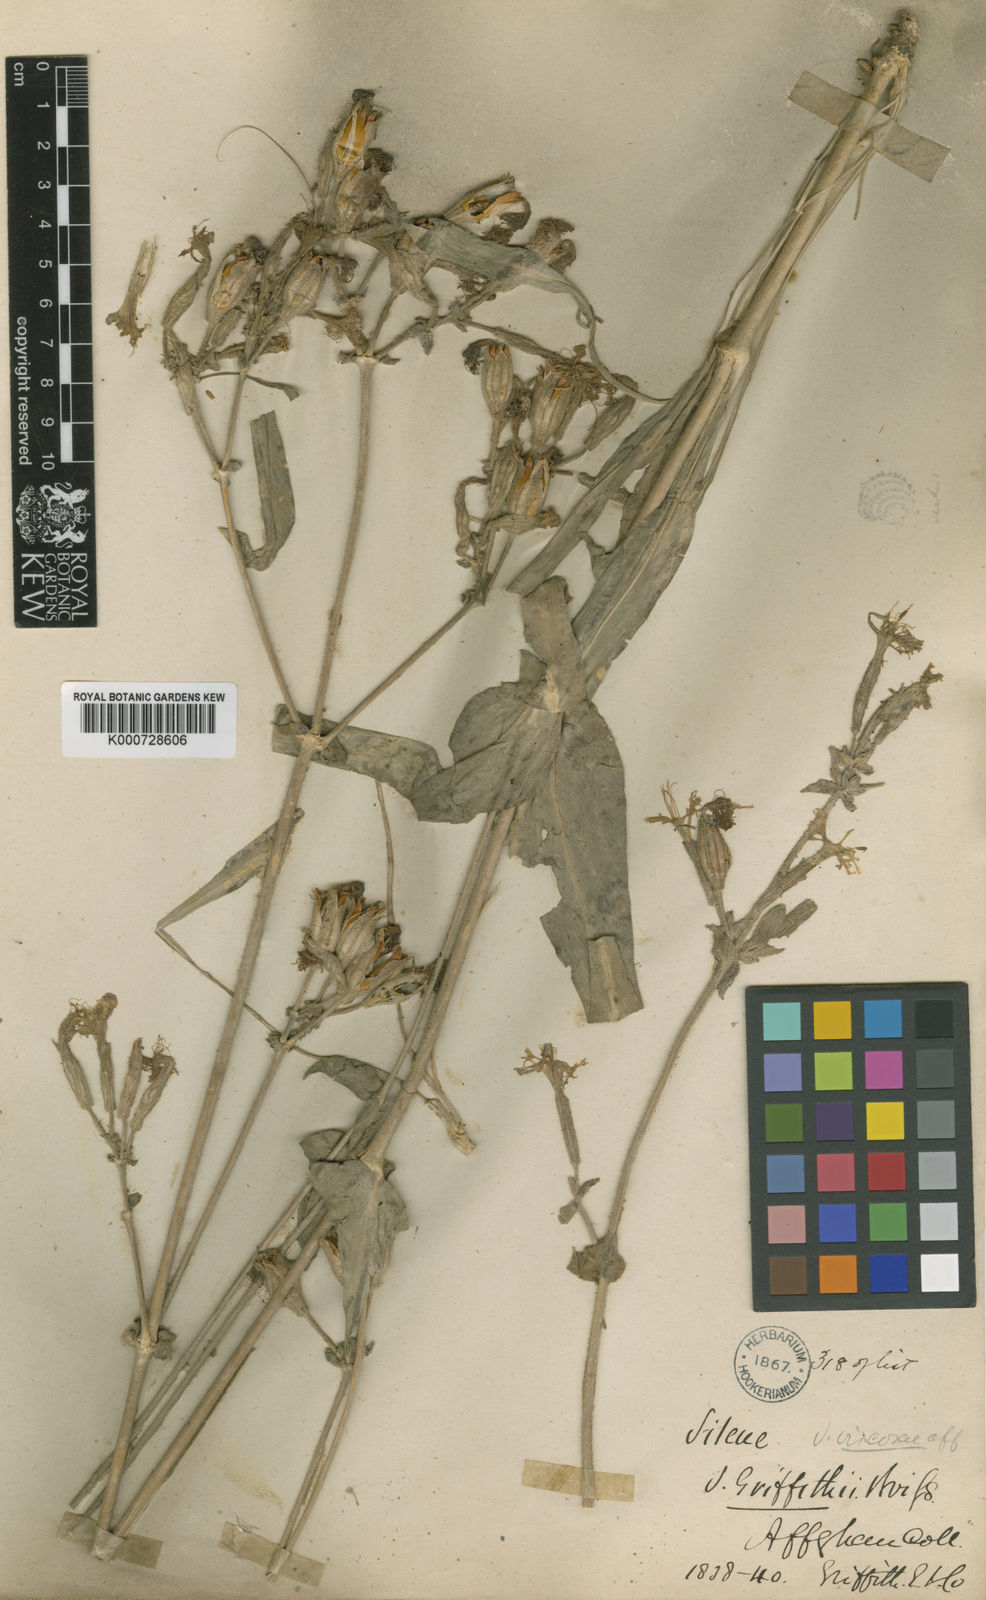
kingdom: Plantae
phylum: Tracheophyta
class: Magnoliopsida
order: Caryophyllales
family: Caryophyllaceae
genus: Silene
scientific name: Silene viscosa
